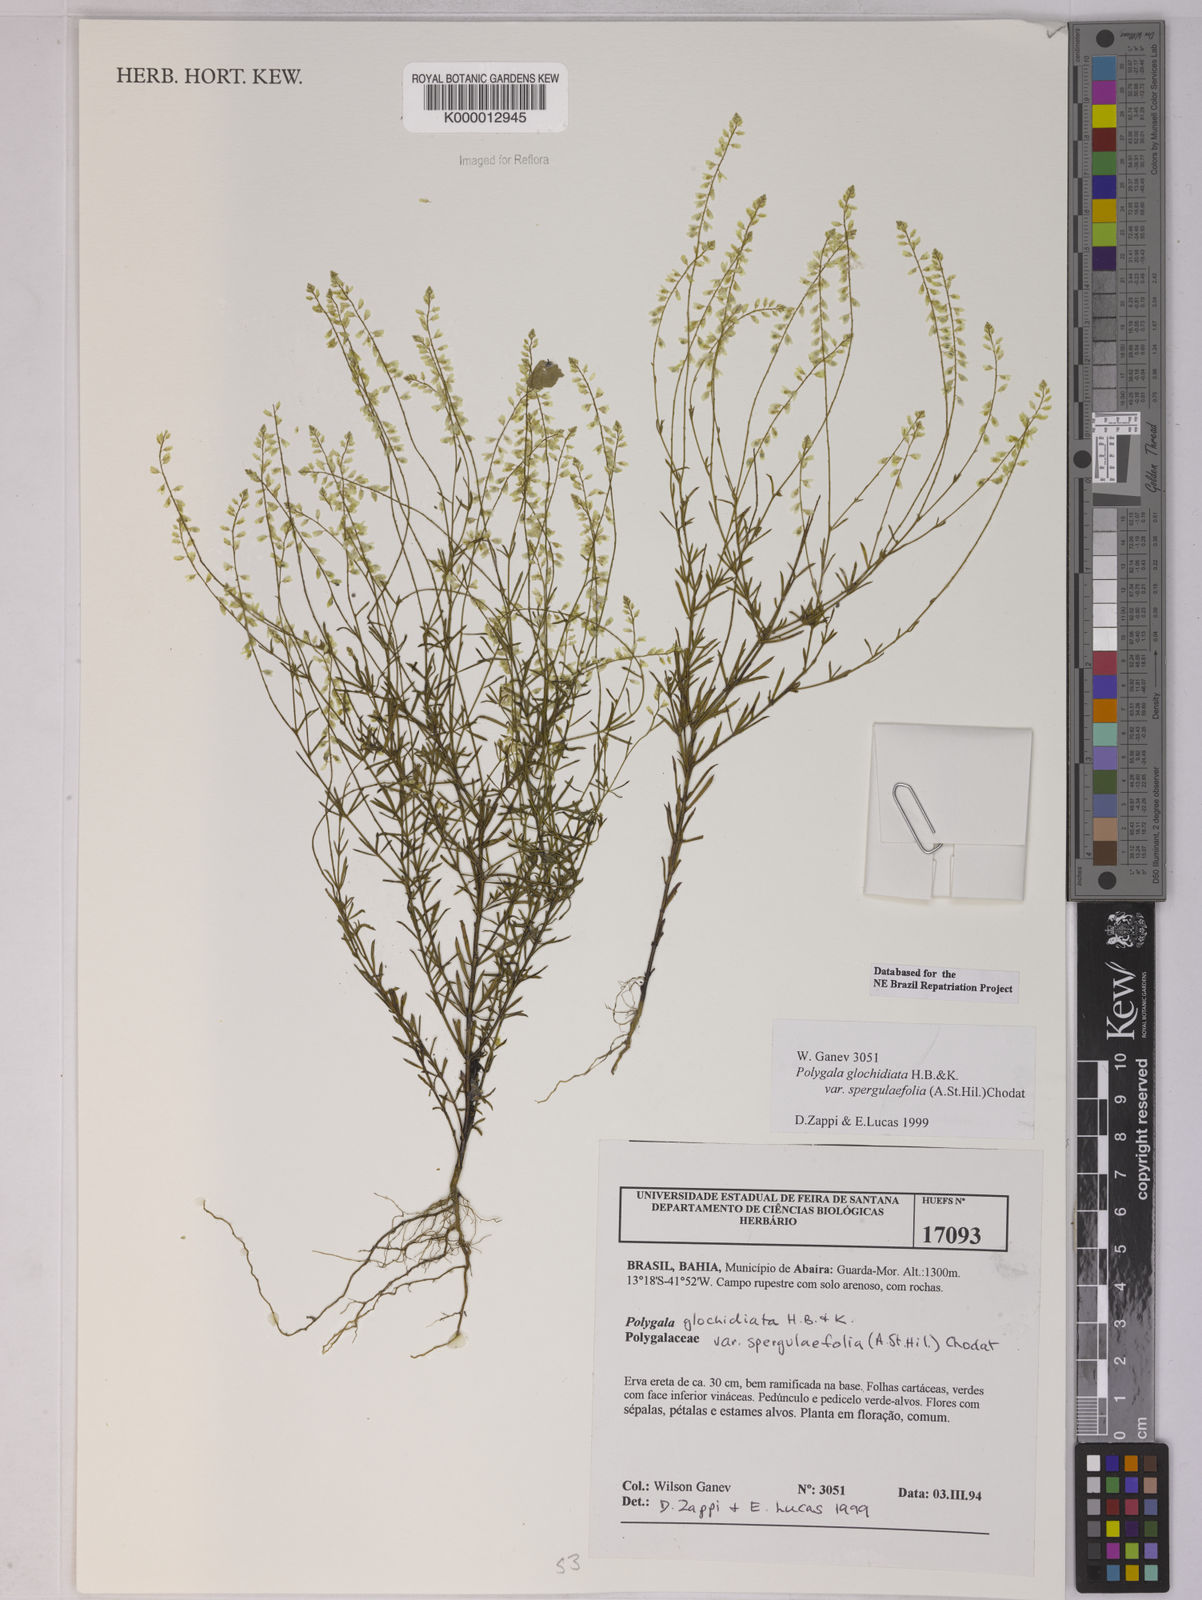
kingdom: Plantae
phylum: Tracheophyta
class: Magnoliopsida
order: Fabales
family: Polygalaceae
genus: Polygala
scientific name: Polygala glochidiata
